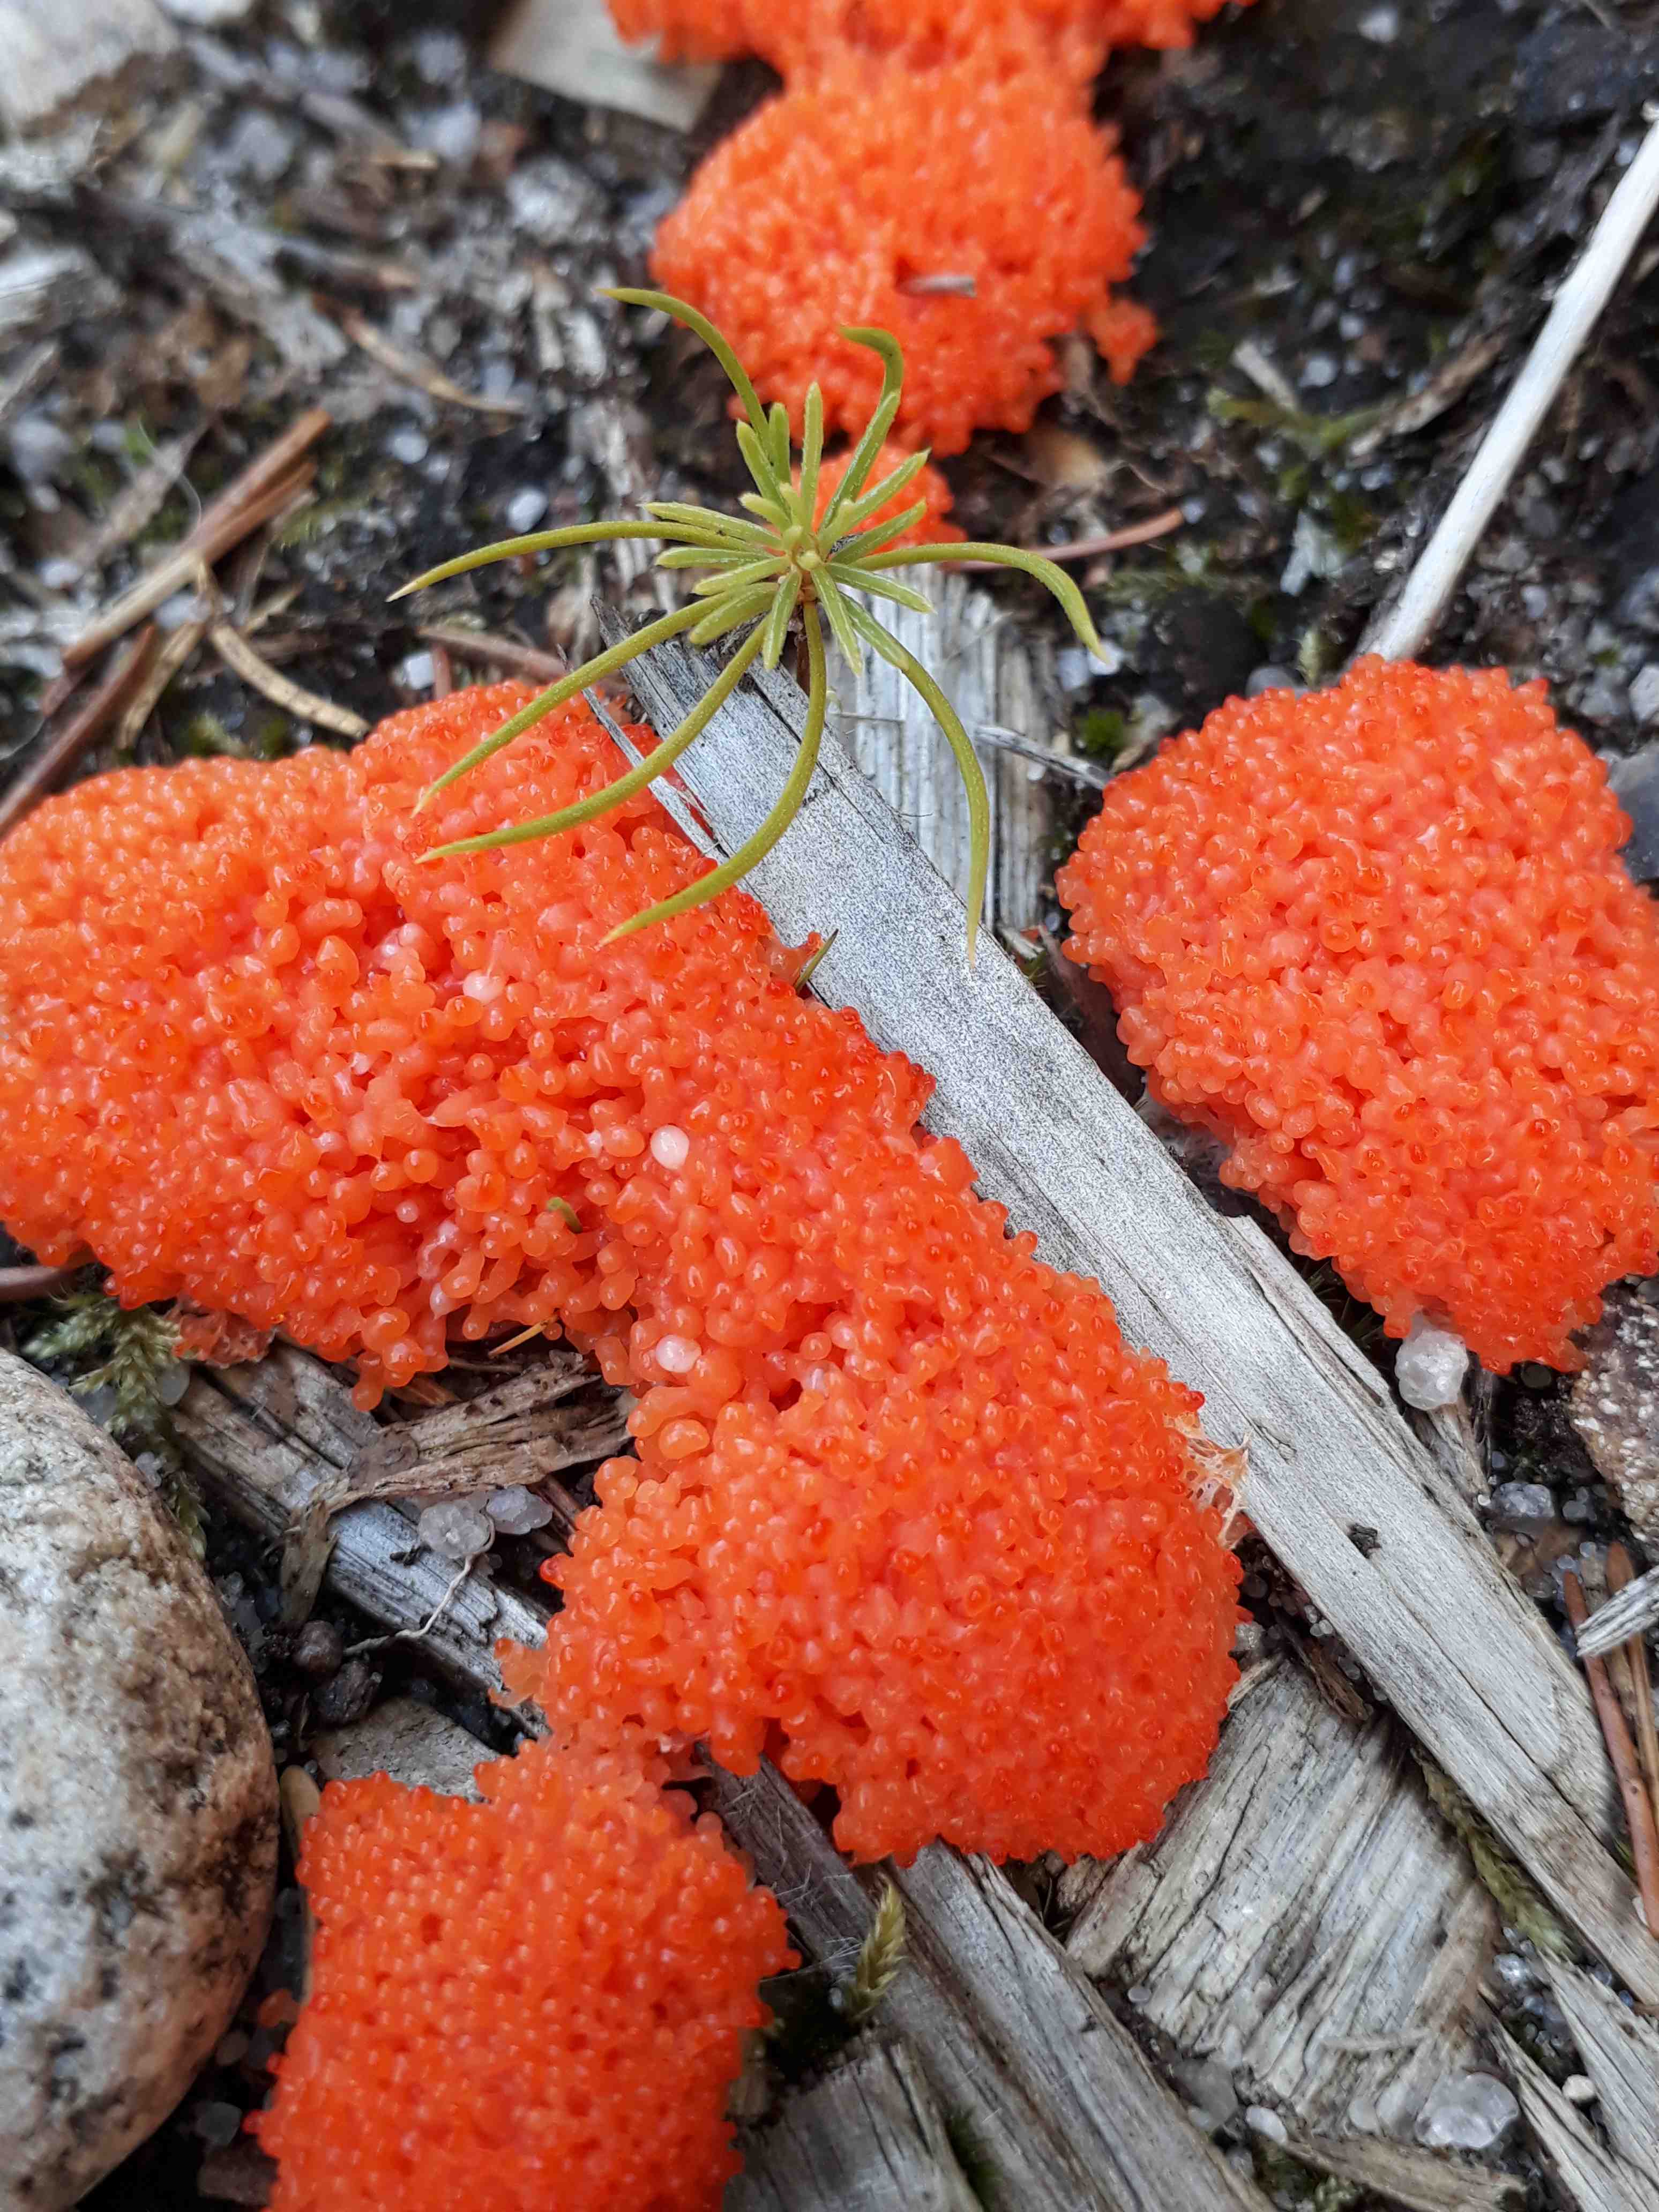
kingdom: Protozoa
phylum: Mycetozoa
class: Myxomycetes
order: Cribrariales
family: Tubiferaceae
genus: Tubifera
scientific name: Tubifera ferruginosa
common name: kanel-støvrør
